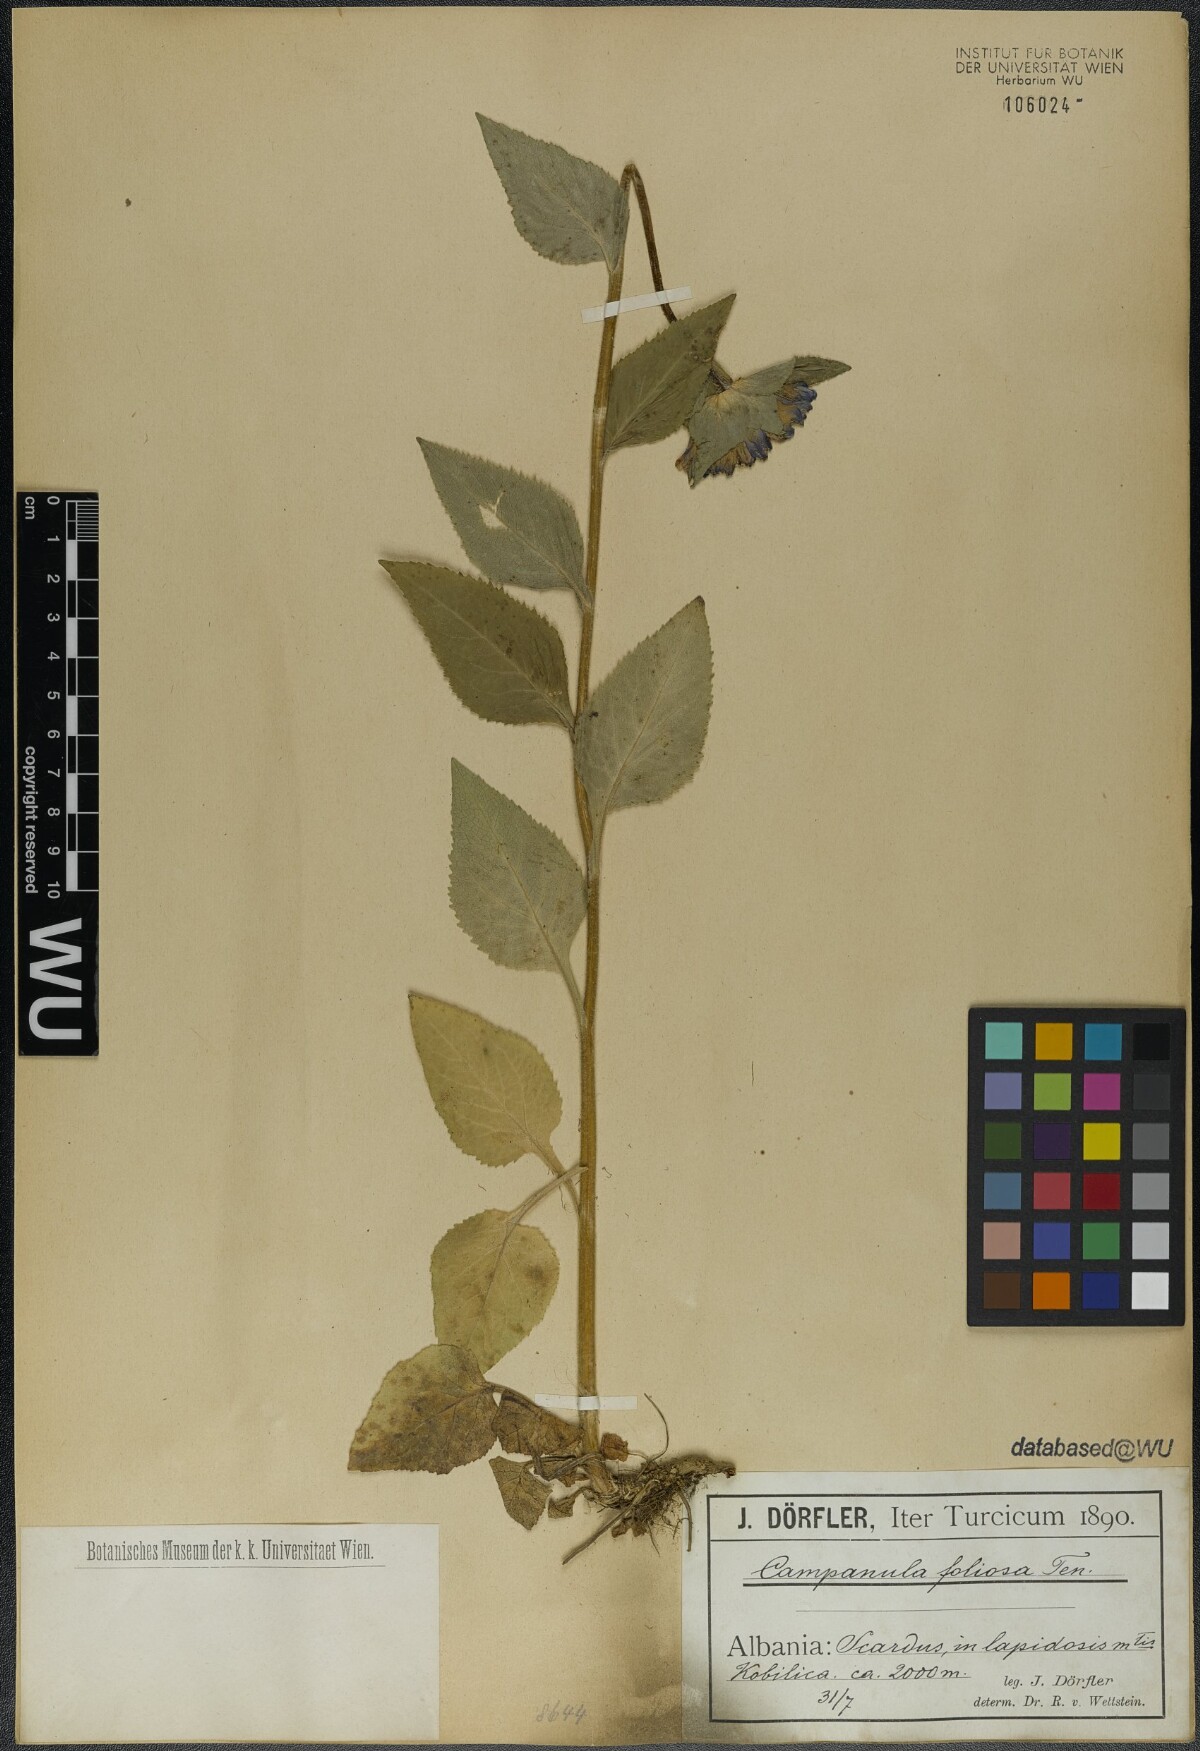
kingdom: Plantae
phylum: Tracheophyta
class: Magnoliopsida
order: Asterales
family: Campanulaceae
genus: Campanula
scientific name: Campanula foliosa
